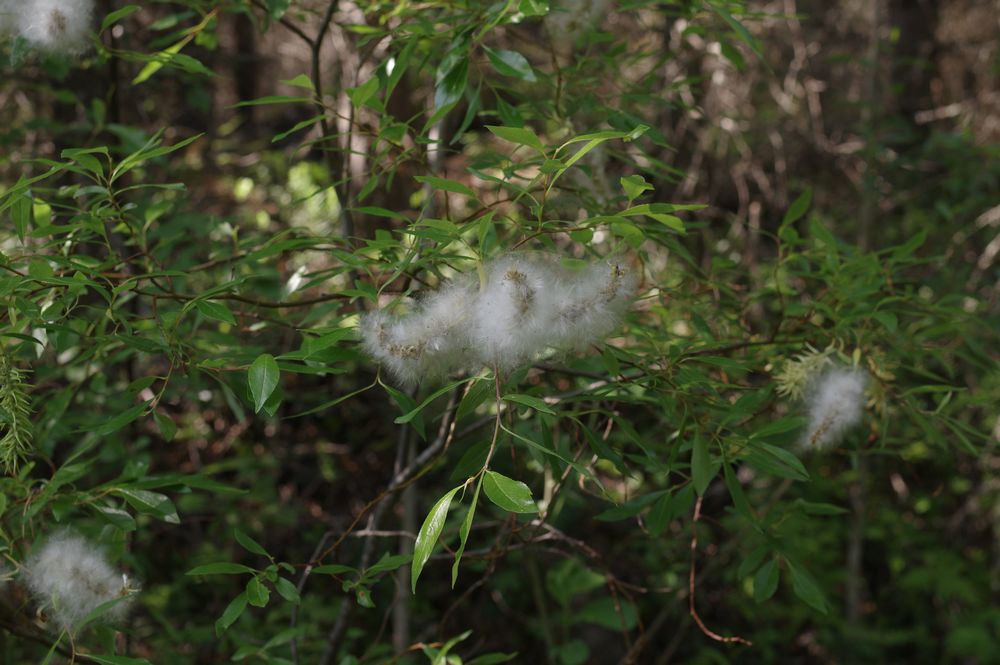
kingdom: Plantae
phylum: Tracheophyta
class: Magnoliopsida
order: Malpighiales
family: Salicaceae
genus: Salix
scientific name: Salix phylicifolia
